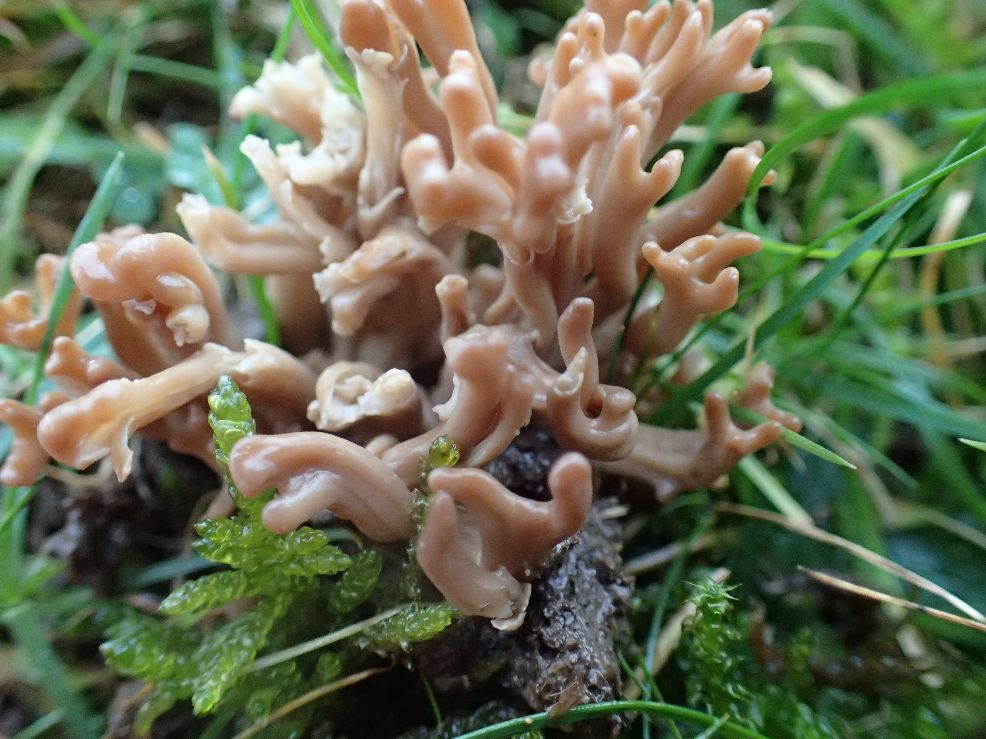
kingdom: Fungi
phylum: Basidiomycota
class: Agaricomycetes
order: Agaricales
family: Clavariaceae
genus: Clavulinopsis
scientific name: Clavulinopsis umbrinella
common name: gulgrå køllesvamp
